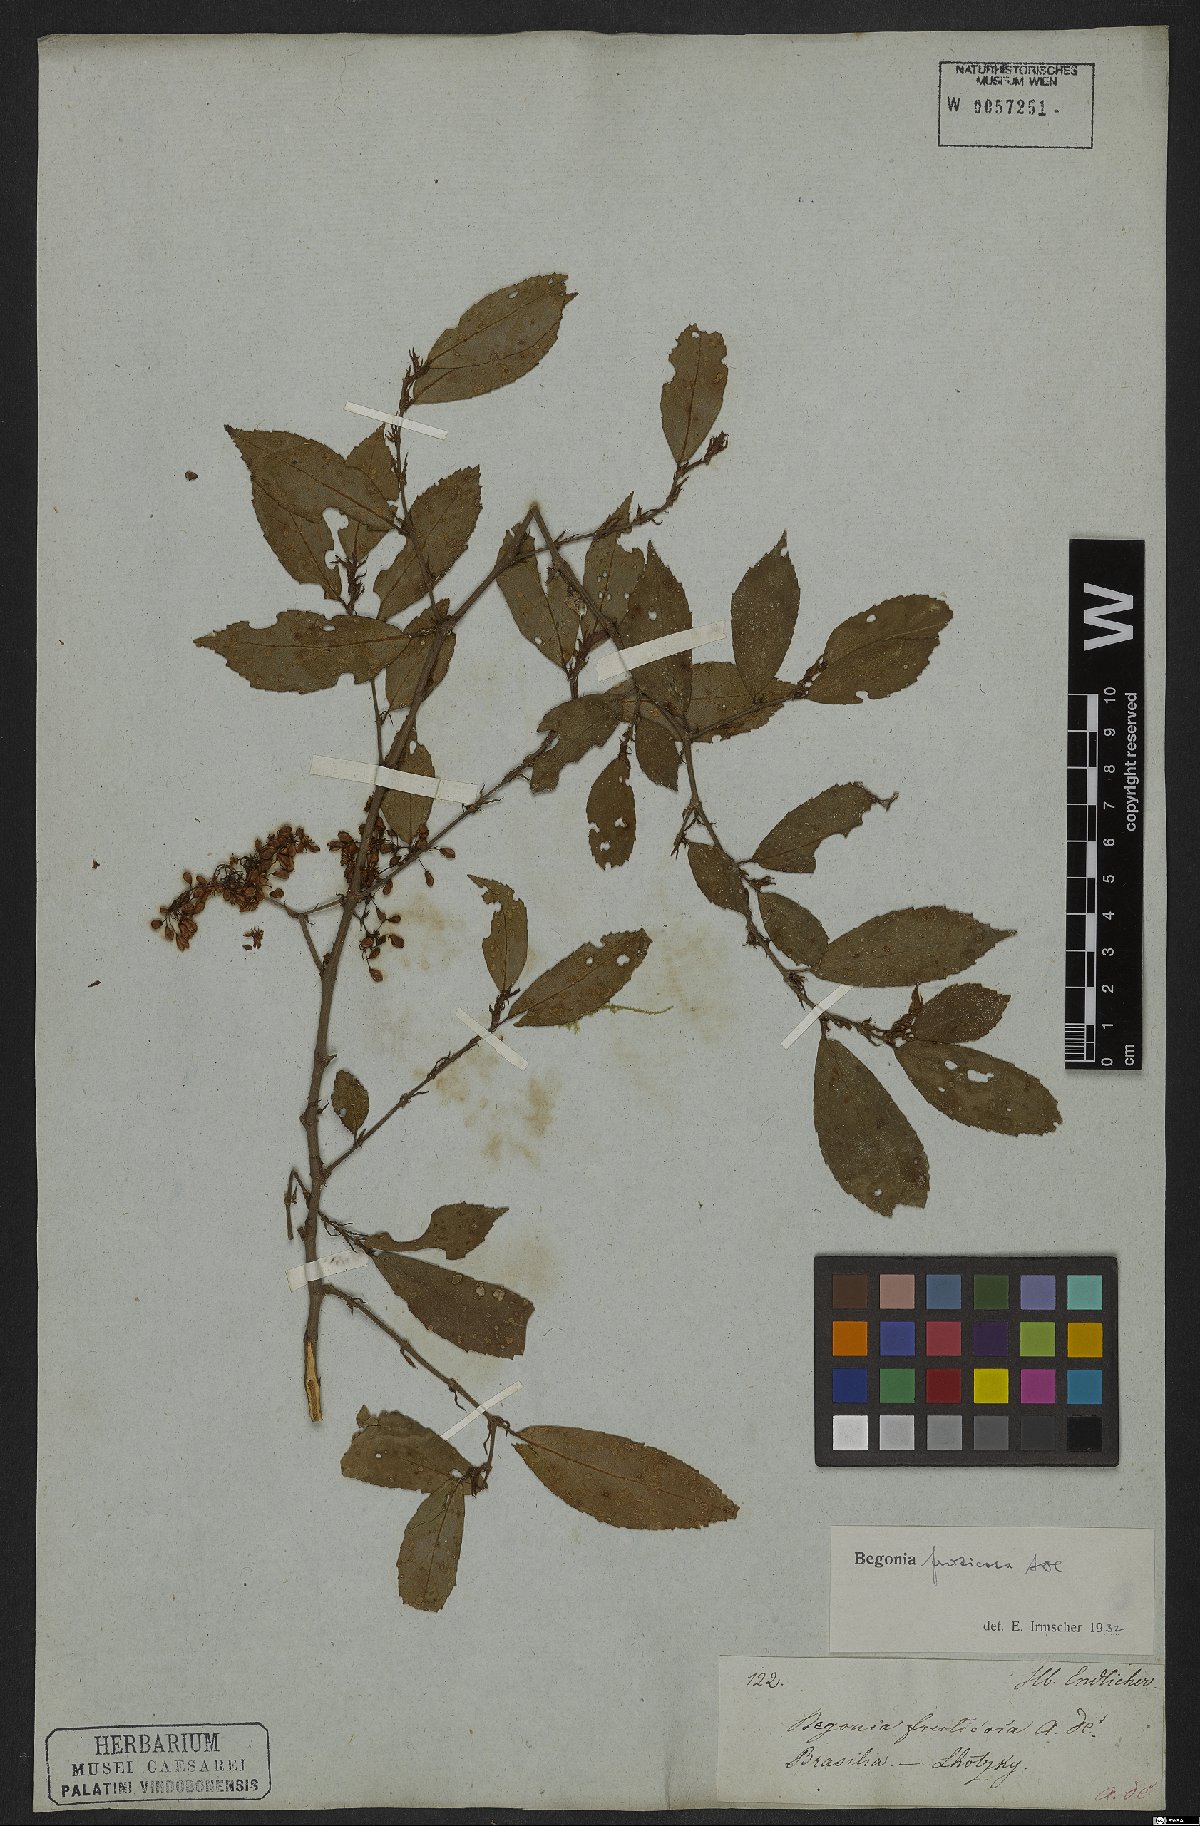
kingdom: Plantae
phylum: Tracheophyta
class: Magnoliopsida
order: Cucurbitales
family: Begoniaceae
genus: Begonia
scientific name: Begonia fruticosa
